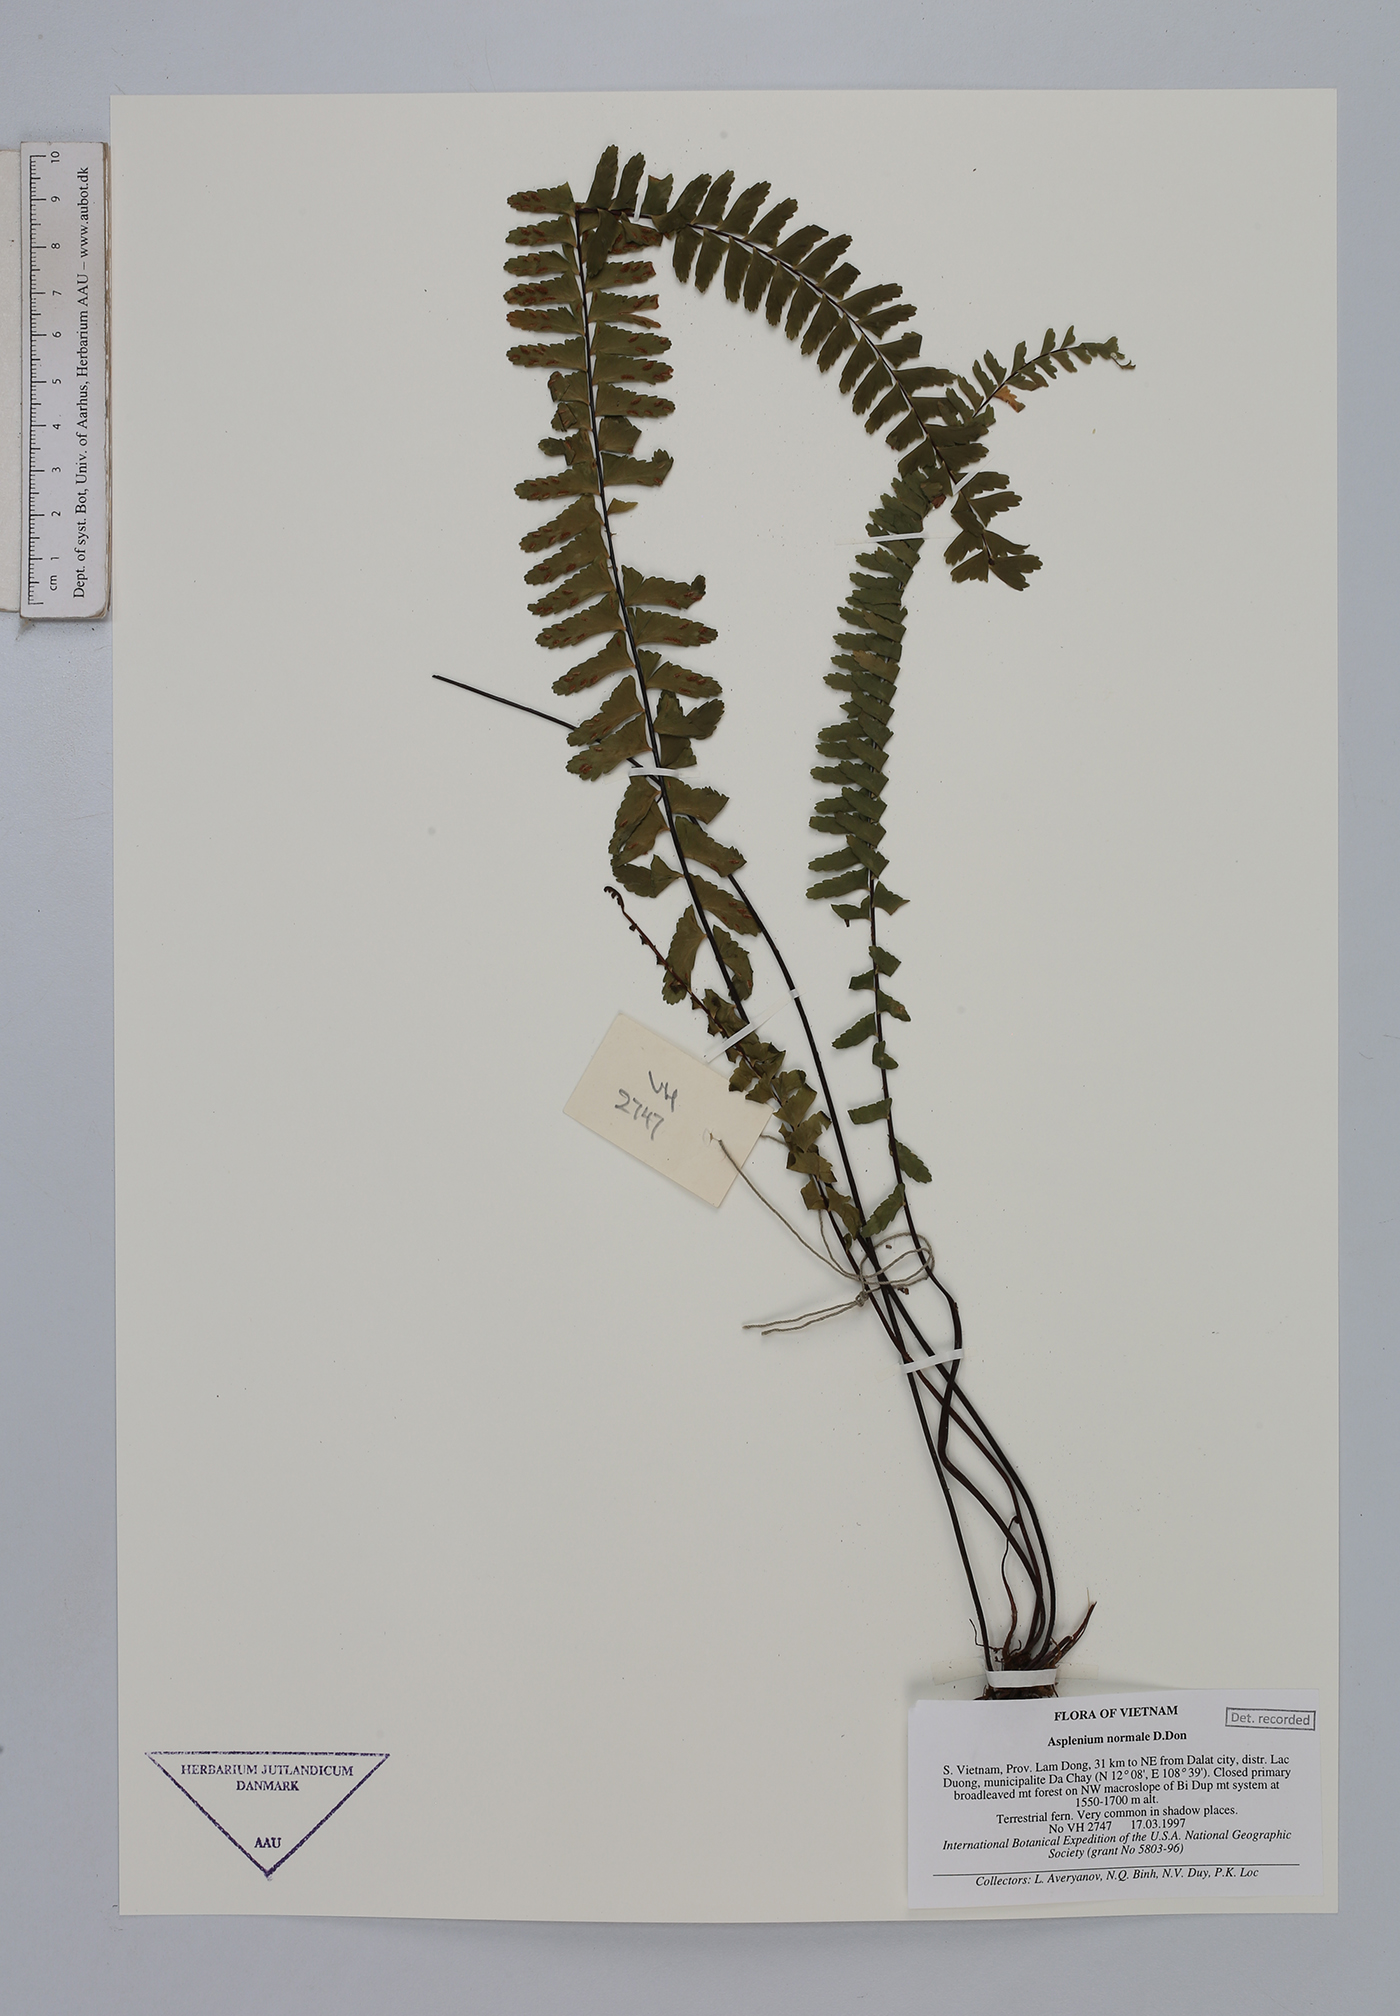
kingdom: Plantae
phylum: Tracheophyta
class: Polypodiopsida
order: Polypodiales
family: Aspleniaceae
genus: Asplenium
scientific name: Asplenium normale
